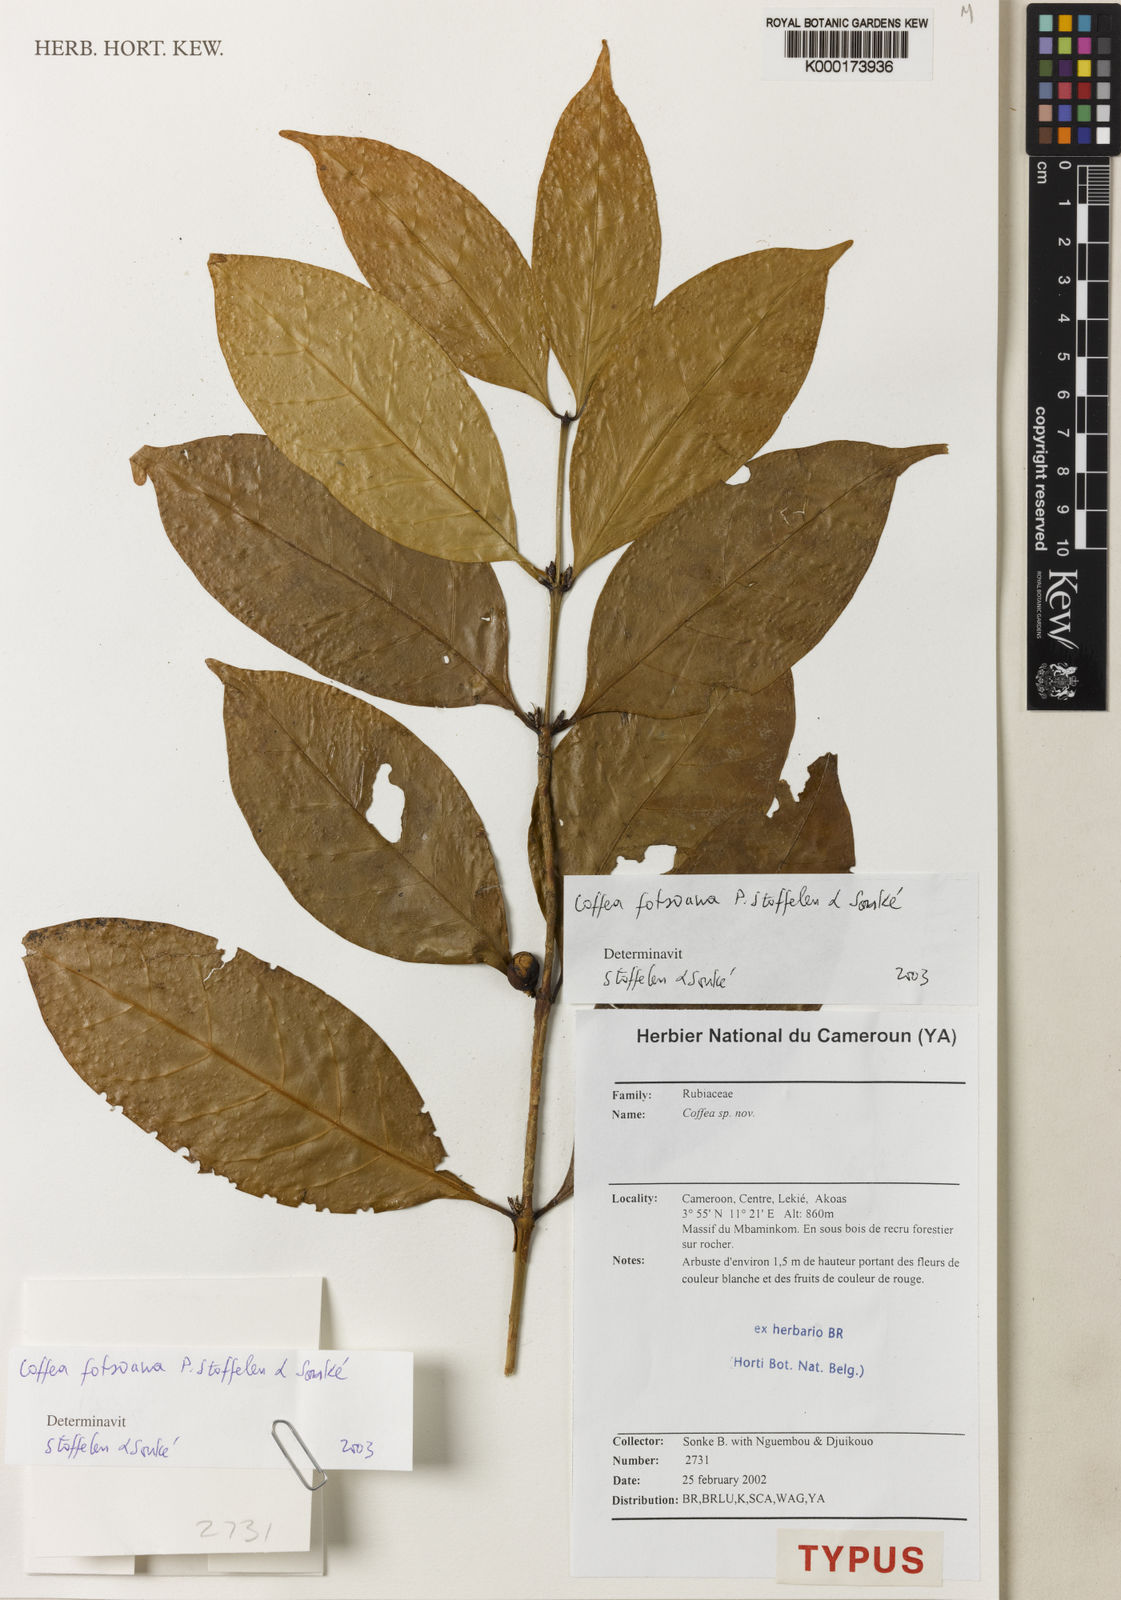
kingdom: Plantae
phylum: Tracheophyta
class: Magnoliopsida
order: Gentianales
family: Rubiaceae
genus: Coffea
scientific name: Coffea
